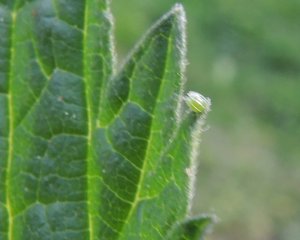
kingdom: Animalia
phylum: Arthropoda
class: Insecta
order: Lepidoptera
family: Nymphalidae
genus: Vanessa
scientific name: Vanessa atalanta
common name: Red Admiral
